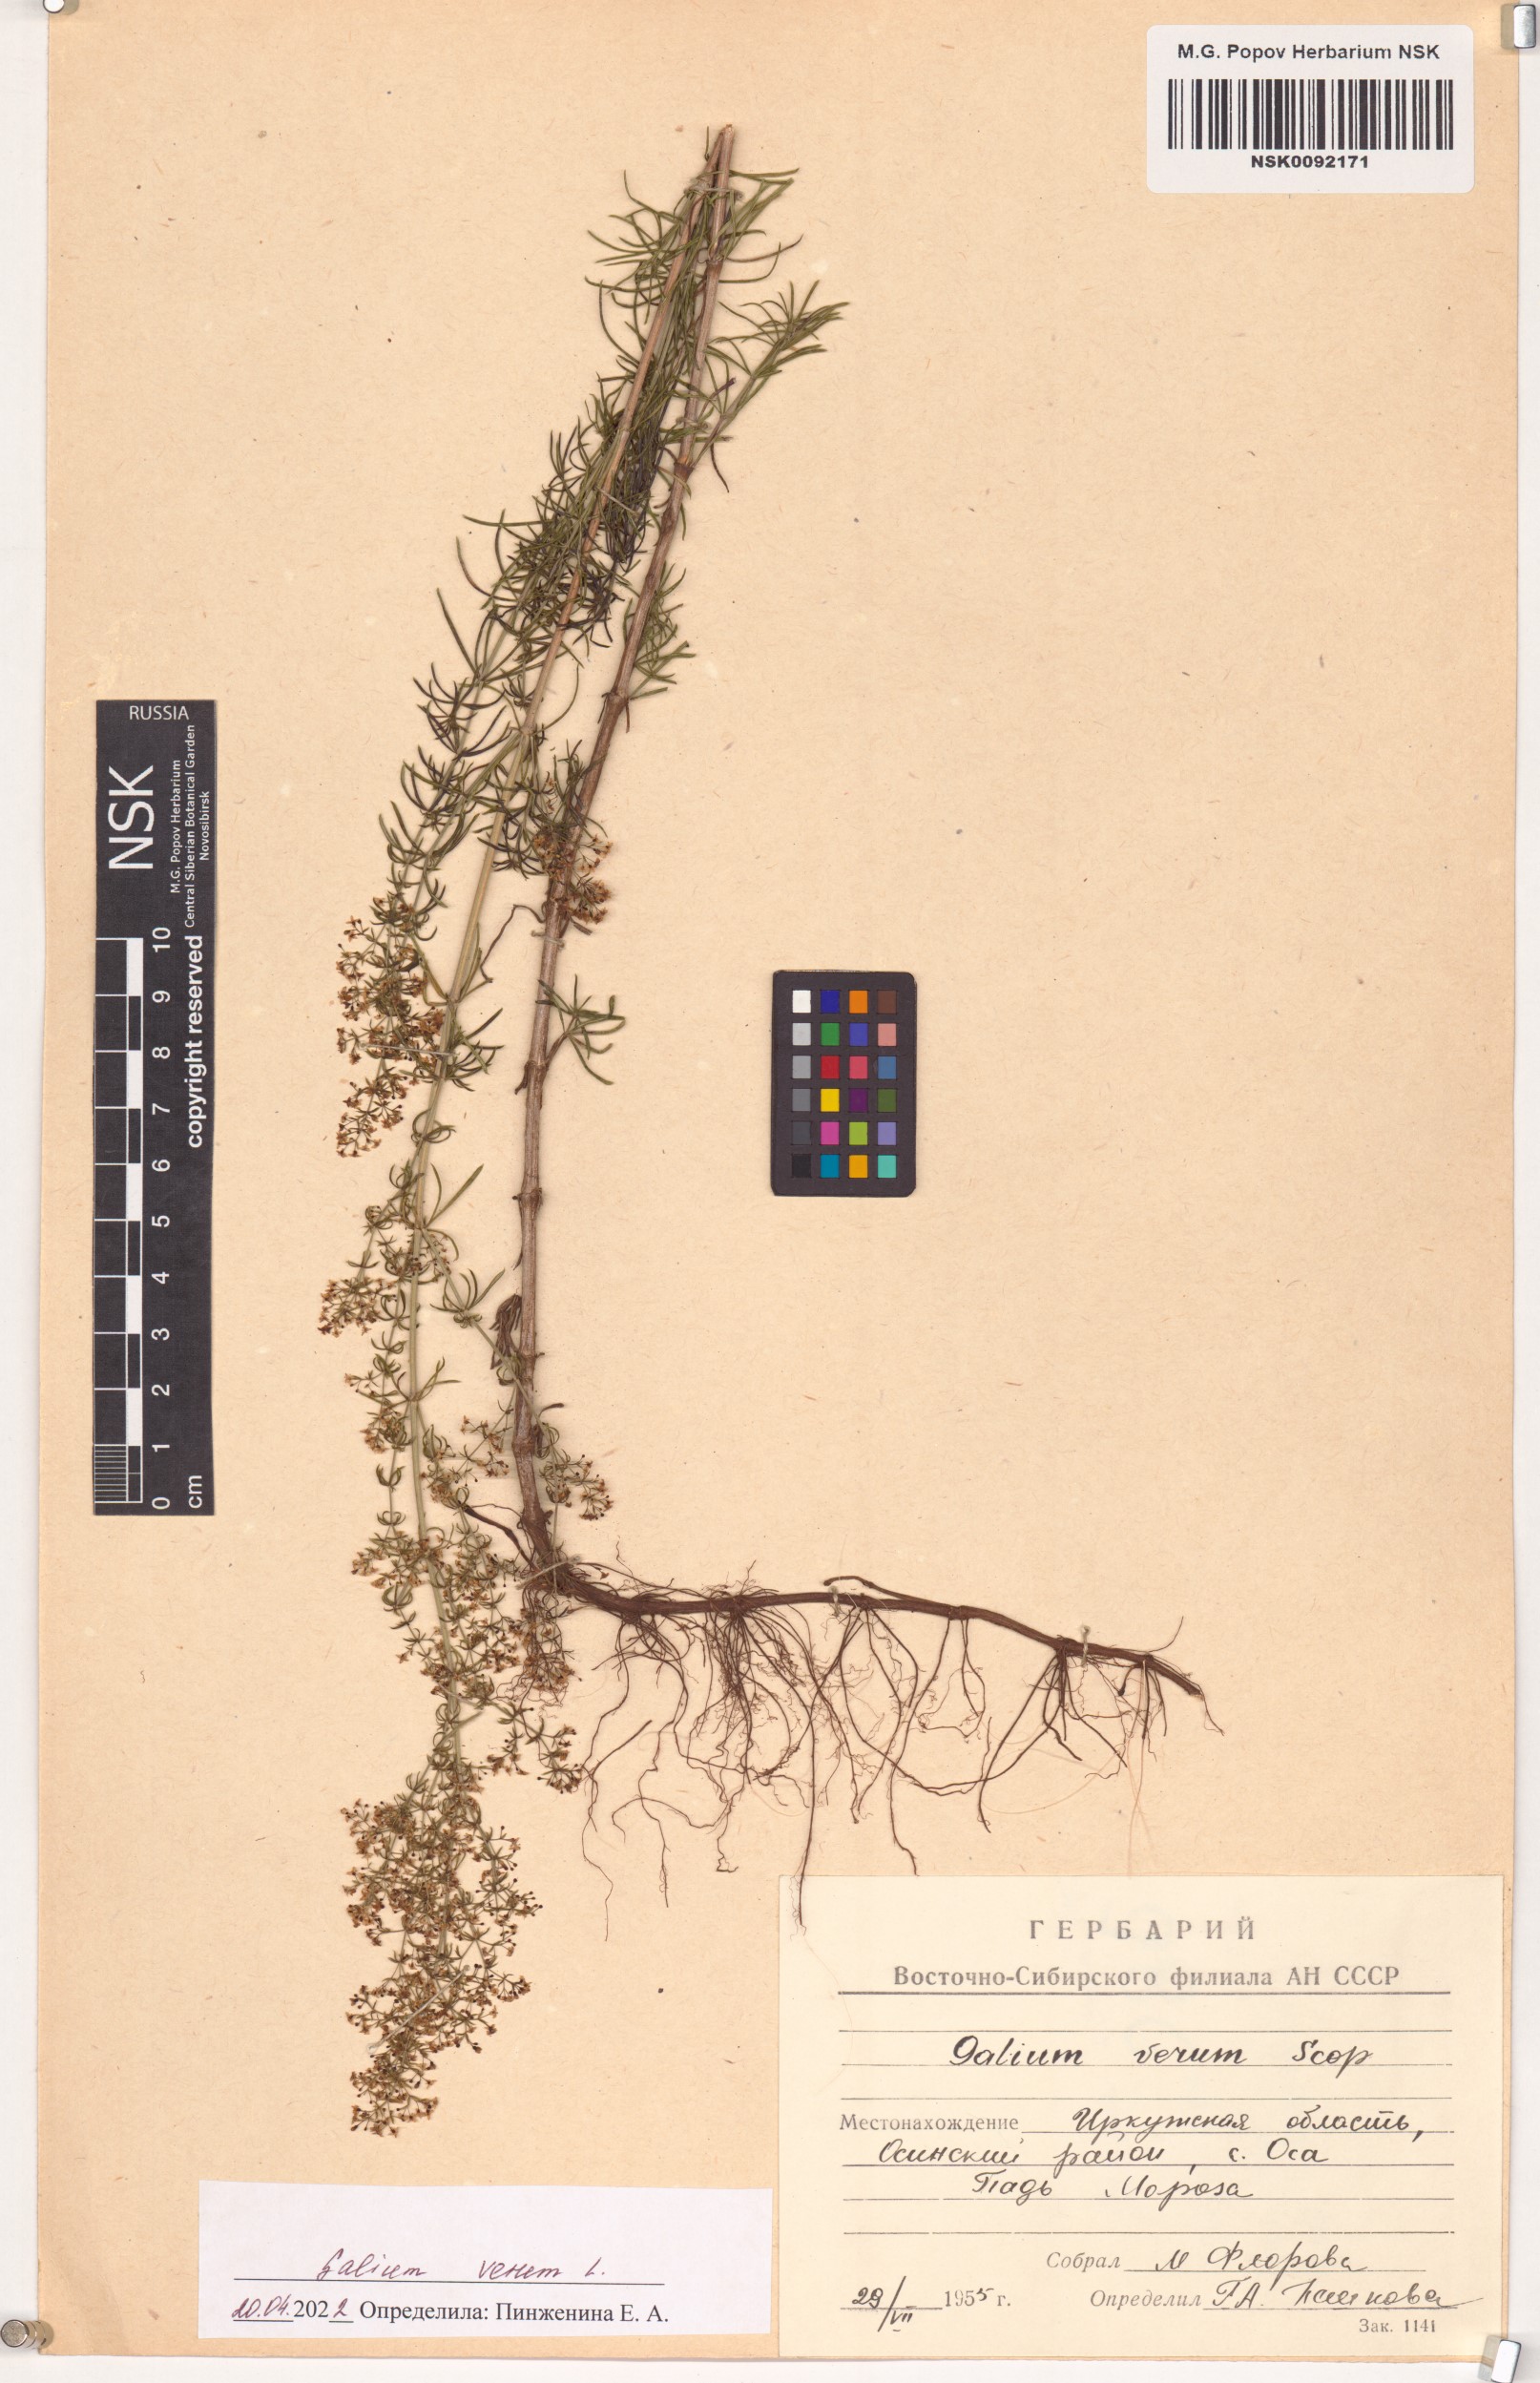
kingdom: Plantae
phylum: Tracheophyta
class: Magnoliopsida
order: Gentianales
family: Rubiaceae
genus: Galium
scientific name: Galium verum
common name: Lady's bedstraw
